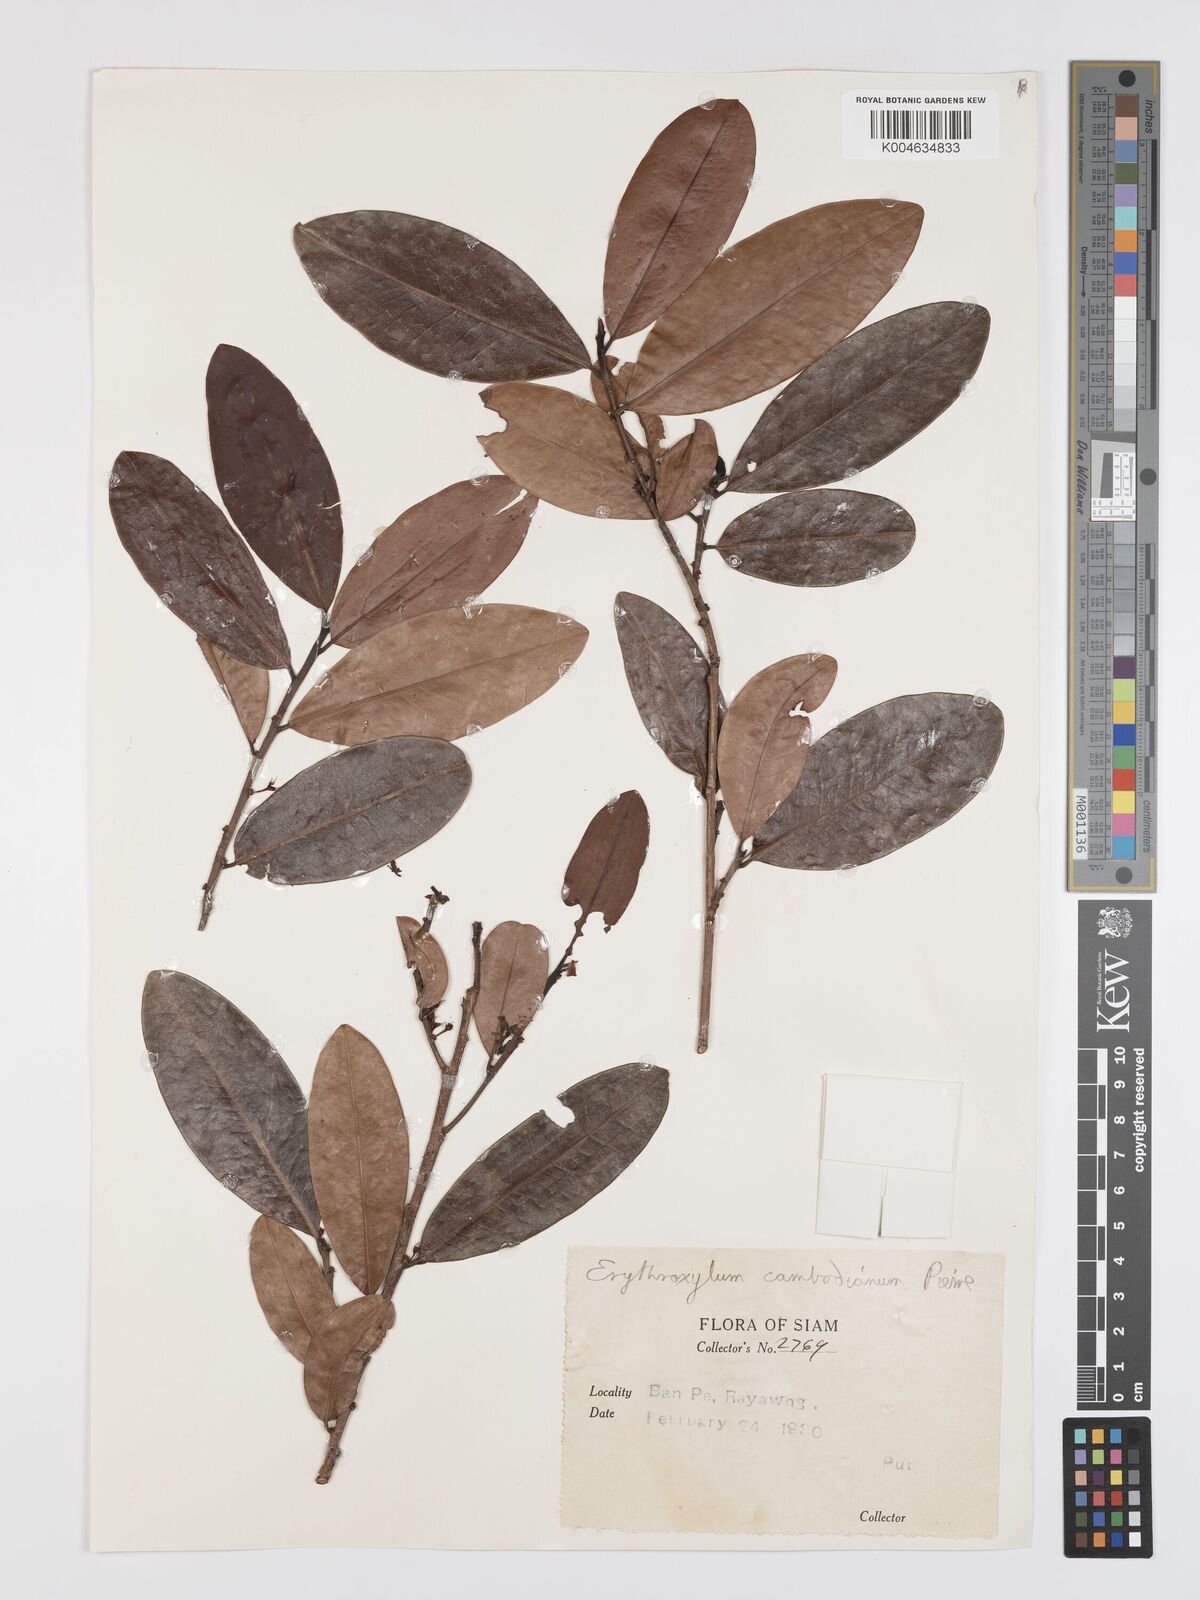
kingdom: Plantae
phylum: Tracheophyta
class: Magnoliopsida
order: Malpighiales
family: Erythroxylaceae
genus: Erythroxylum
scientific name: Erythroxylum cambodianum
